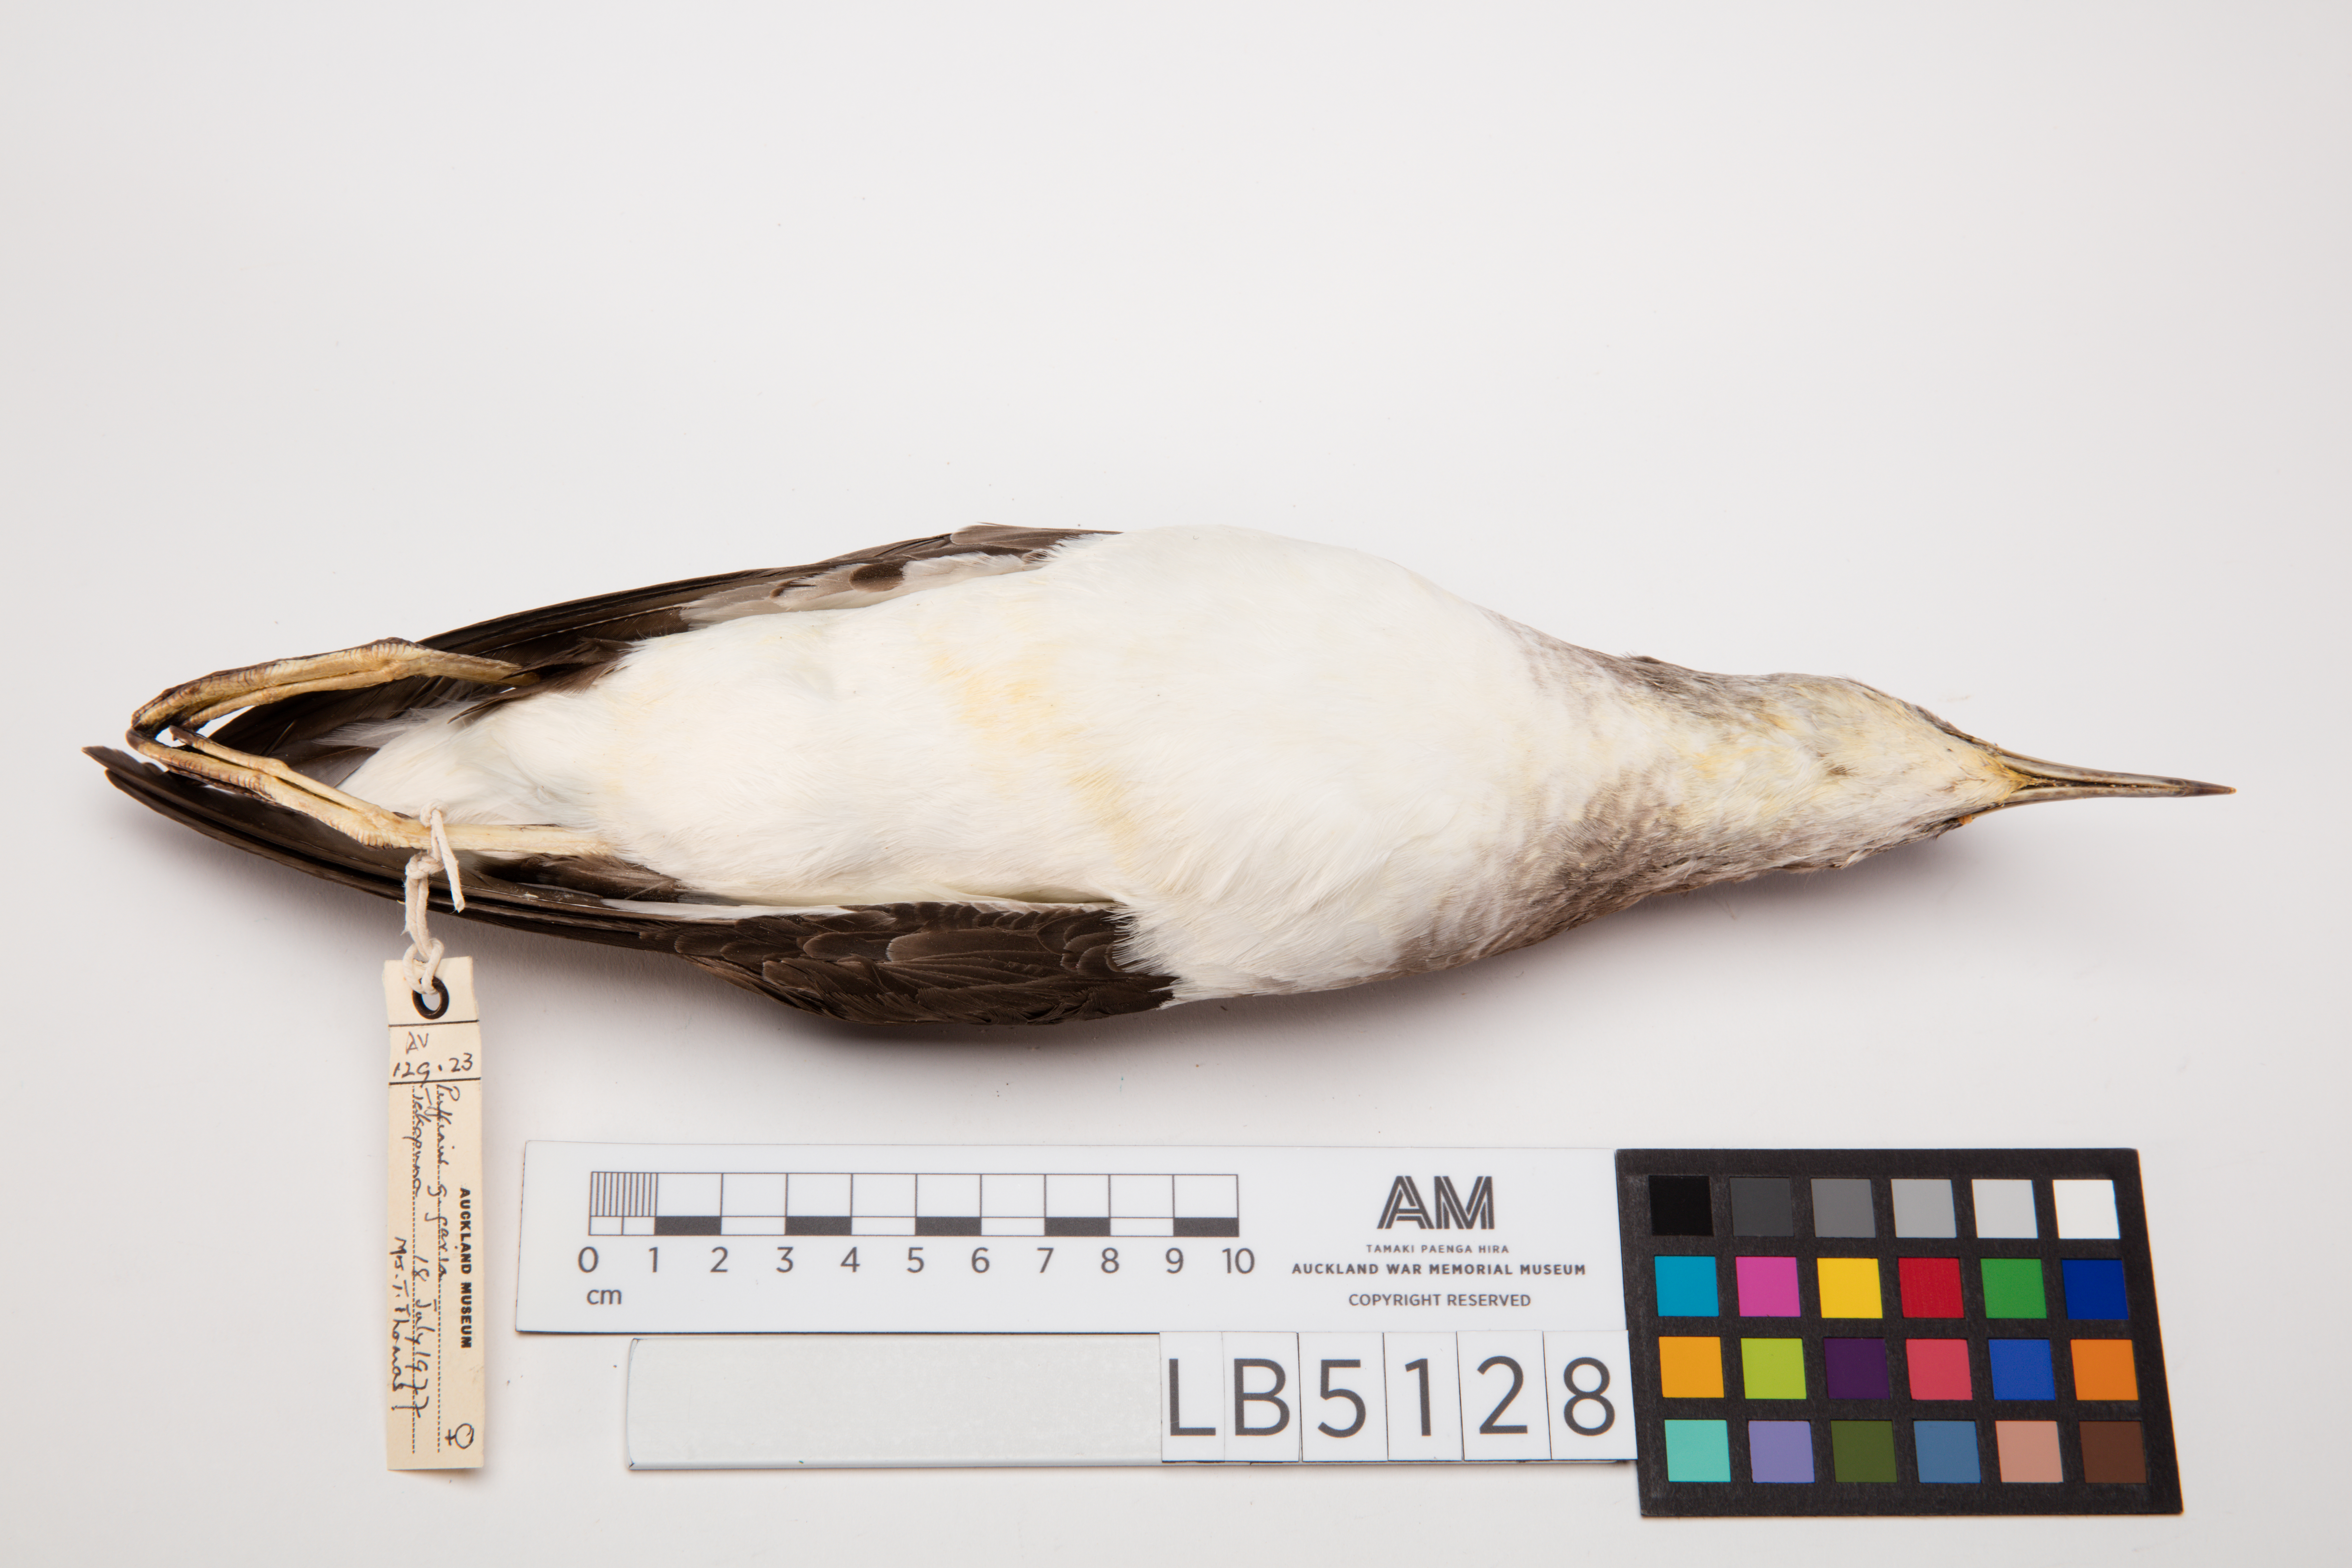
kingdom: Animalia
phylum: Chordata
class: Aves
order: Procellariiformes
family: Procellariidae
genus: Ardenna
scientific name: Ardenna
